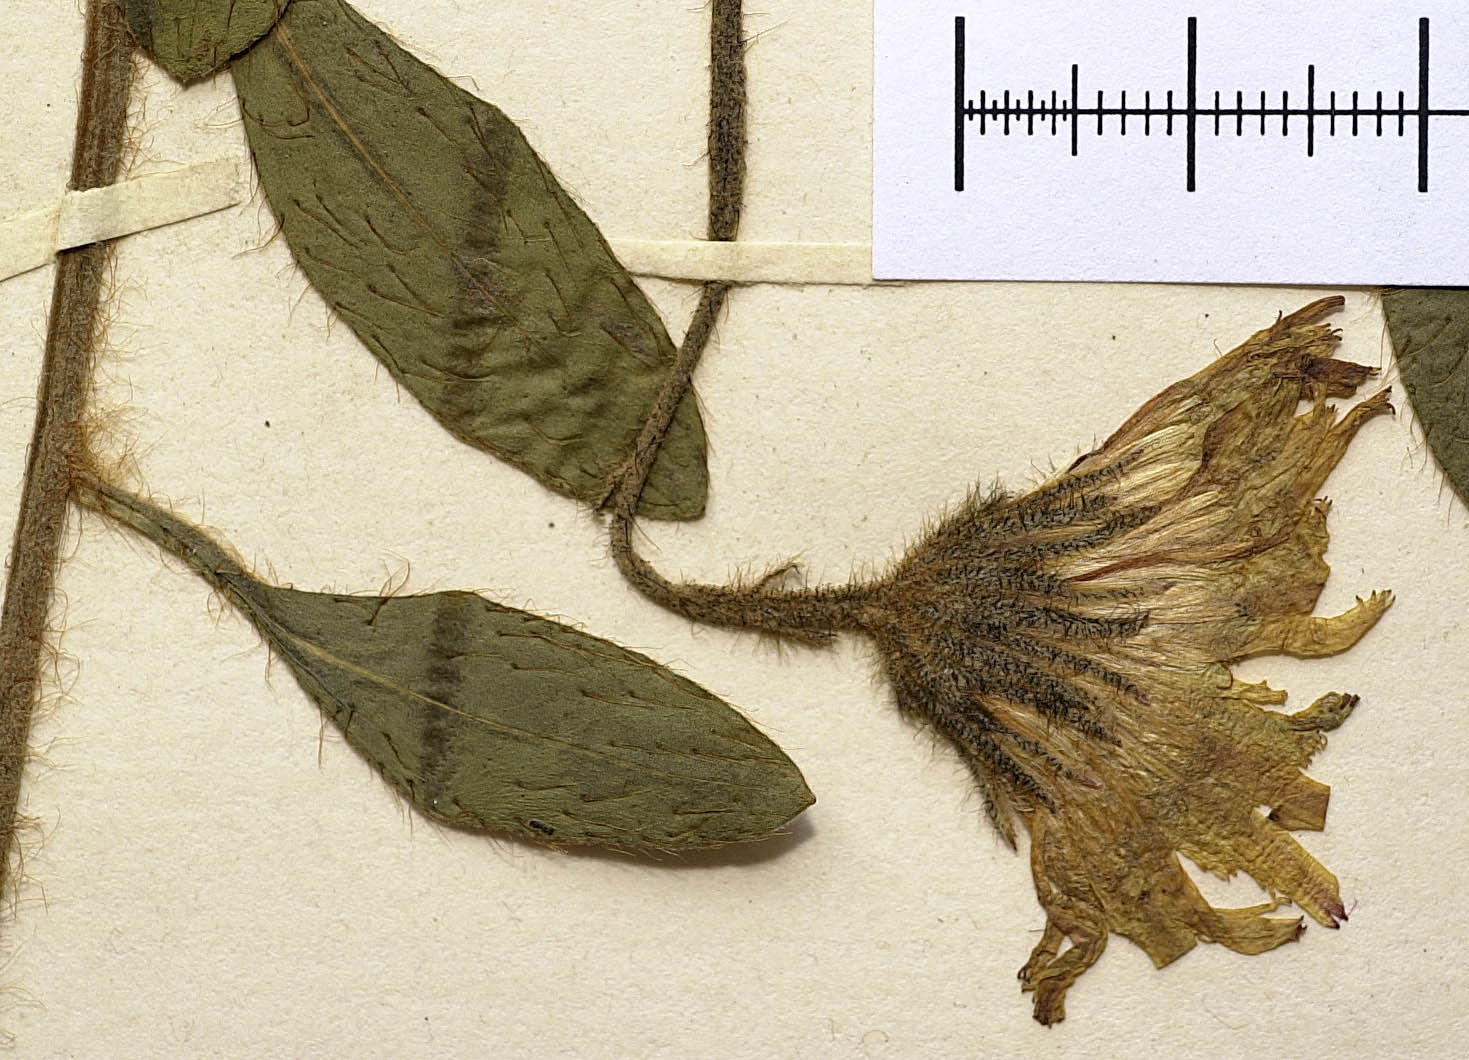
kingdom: Plantae
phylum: Tracheophyta
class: Magnoliopsida
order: Asterales
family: Asteraceae
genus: Pilosella
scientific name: Pilosella longisquama
